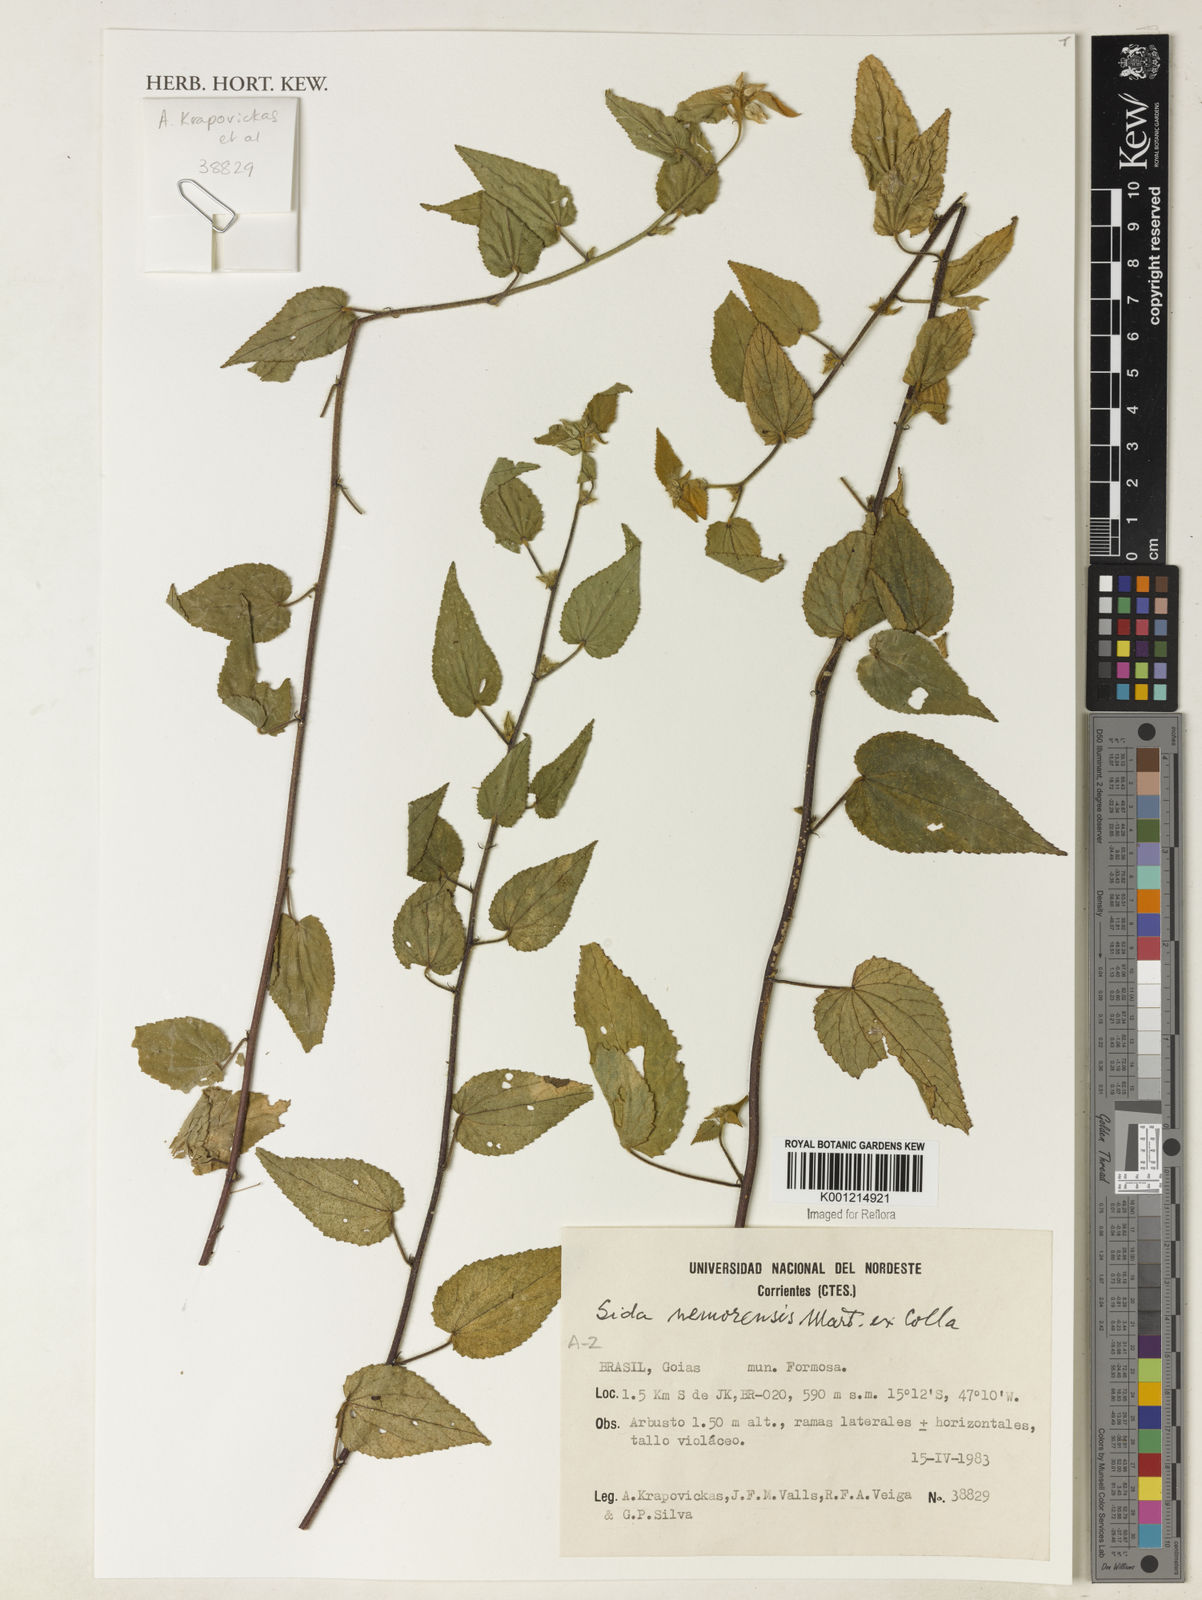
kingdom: Plantae
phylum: Tracheophyta
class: Magnoliopsida
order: Malvales
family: Malvaceae
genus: Sida
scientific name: Sida nemorensis
